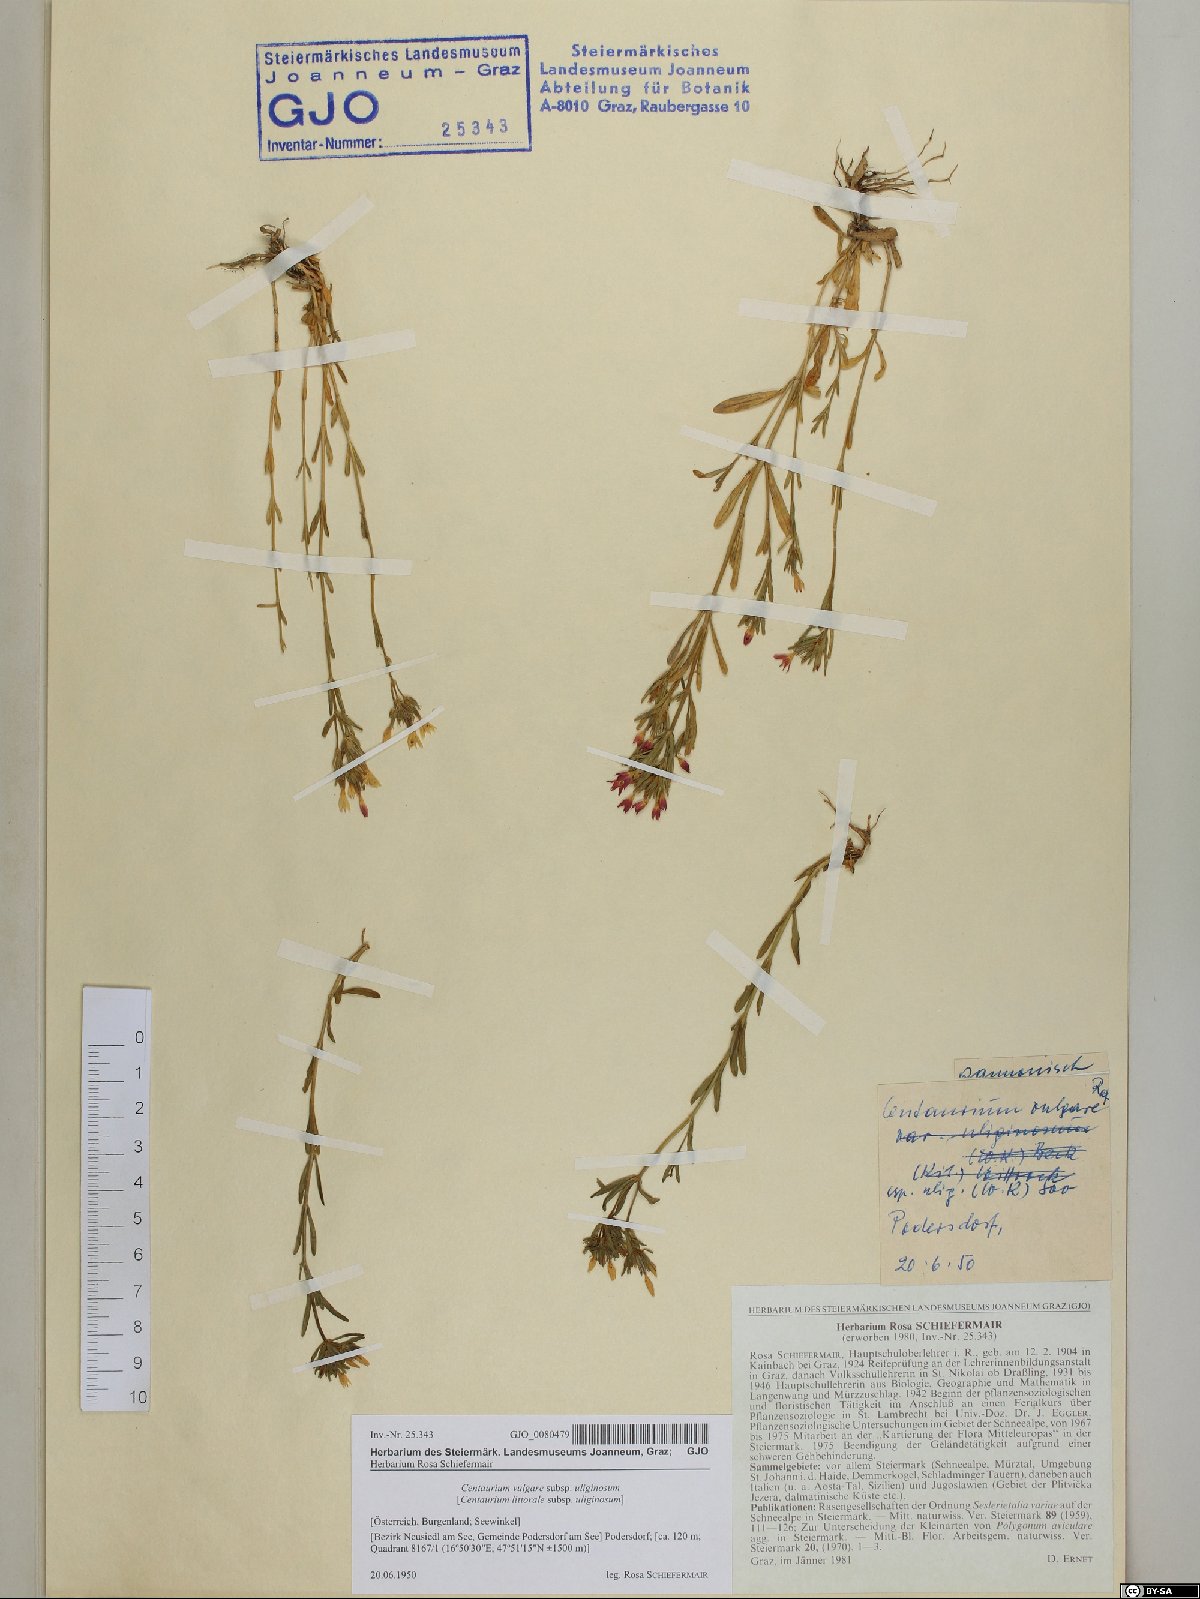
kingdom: Plantae
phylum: Tracheophyta
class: Magnoliopsida
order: Gentianales
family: Gentianaceae
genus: Centaurium
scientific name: Centaurium littorale
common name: Seaside centaury
